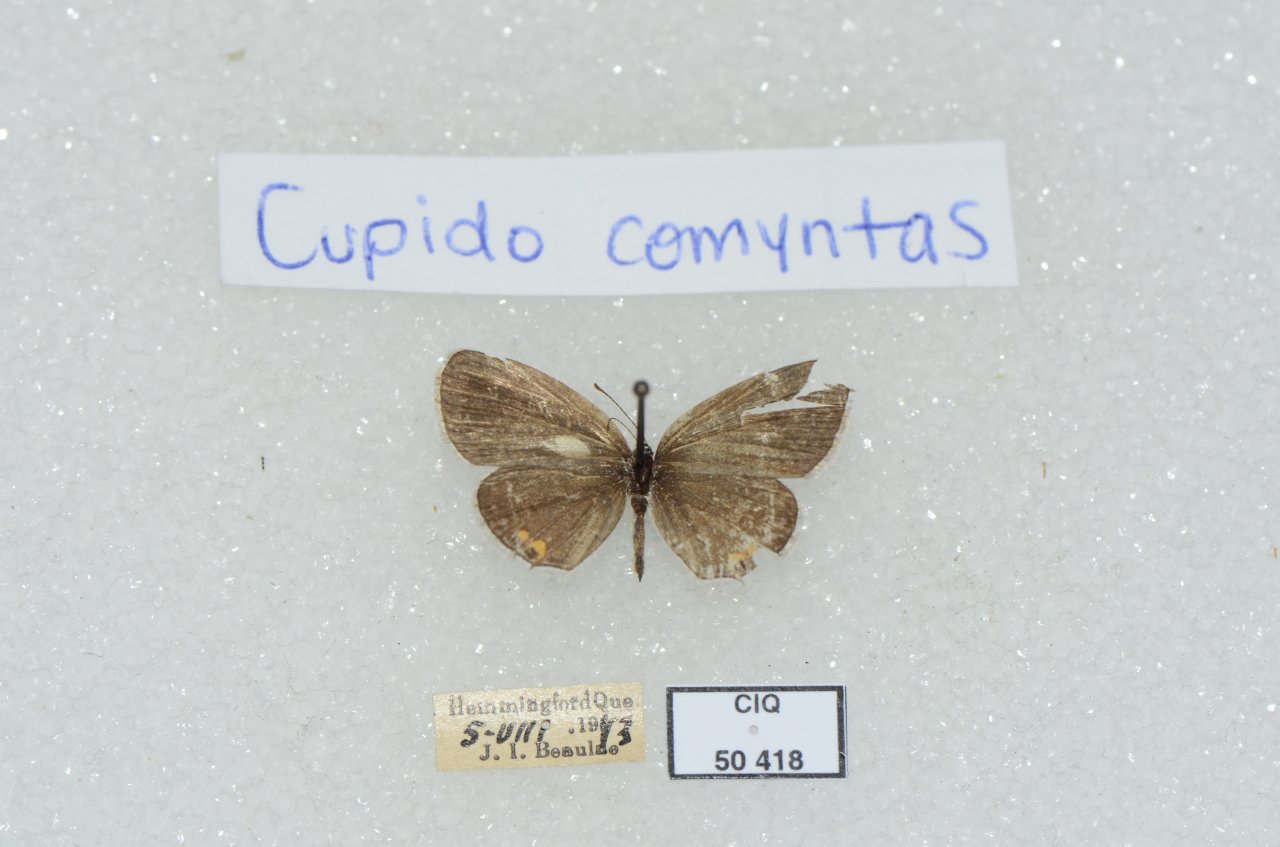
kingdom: Animalia
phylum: Arthropoda
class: Insecta
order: Lepidoptera
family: Lycaenidae
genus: Elkalyce
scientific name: Elkalyce comyntas
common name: Eastern Tailed-Blue
